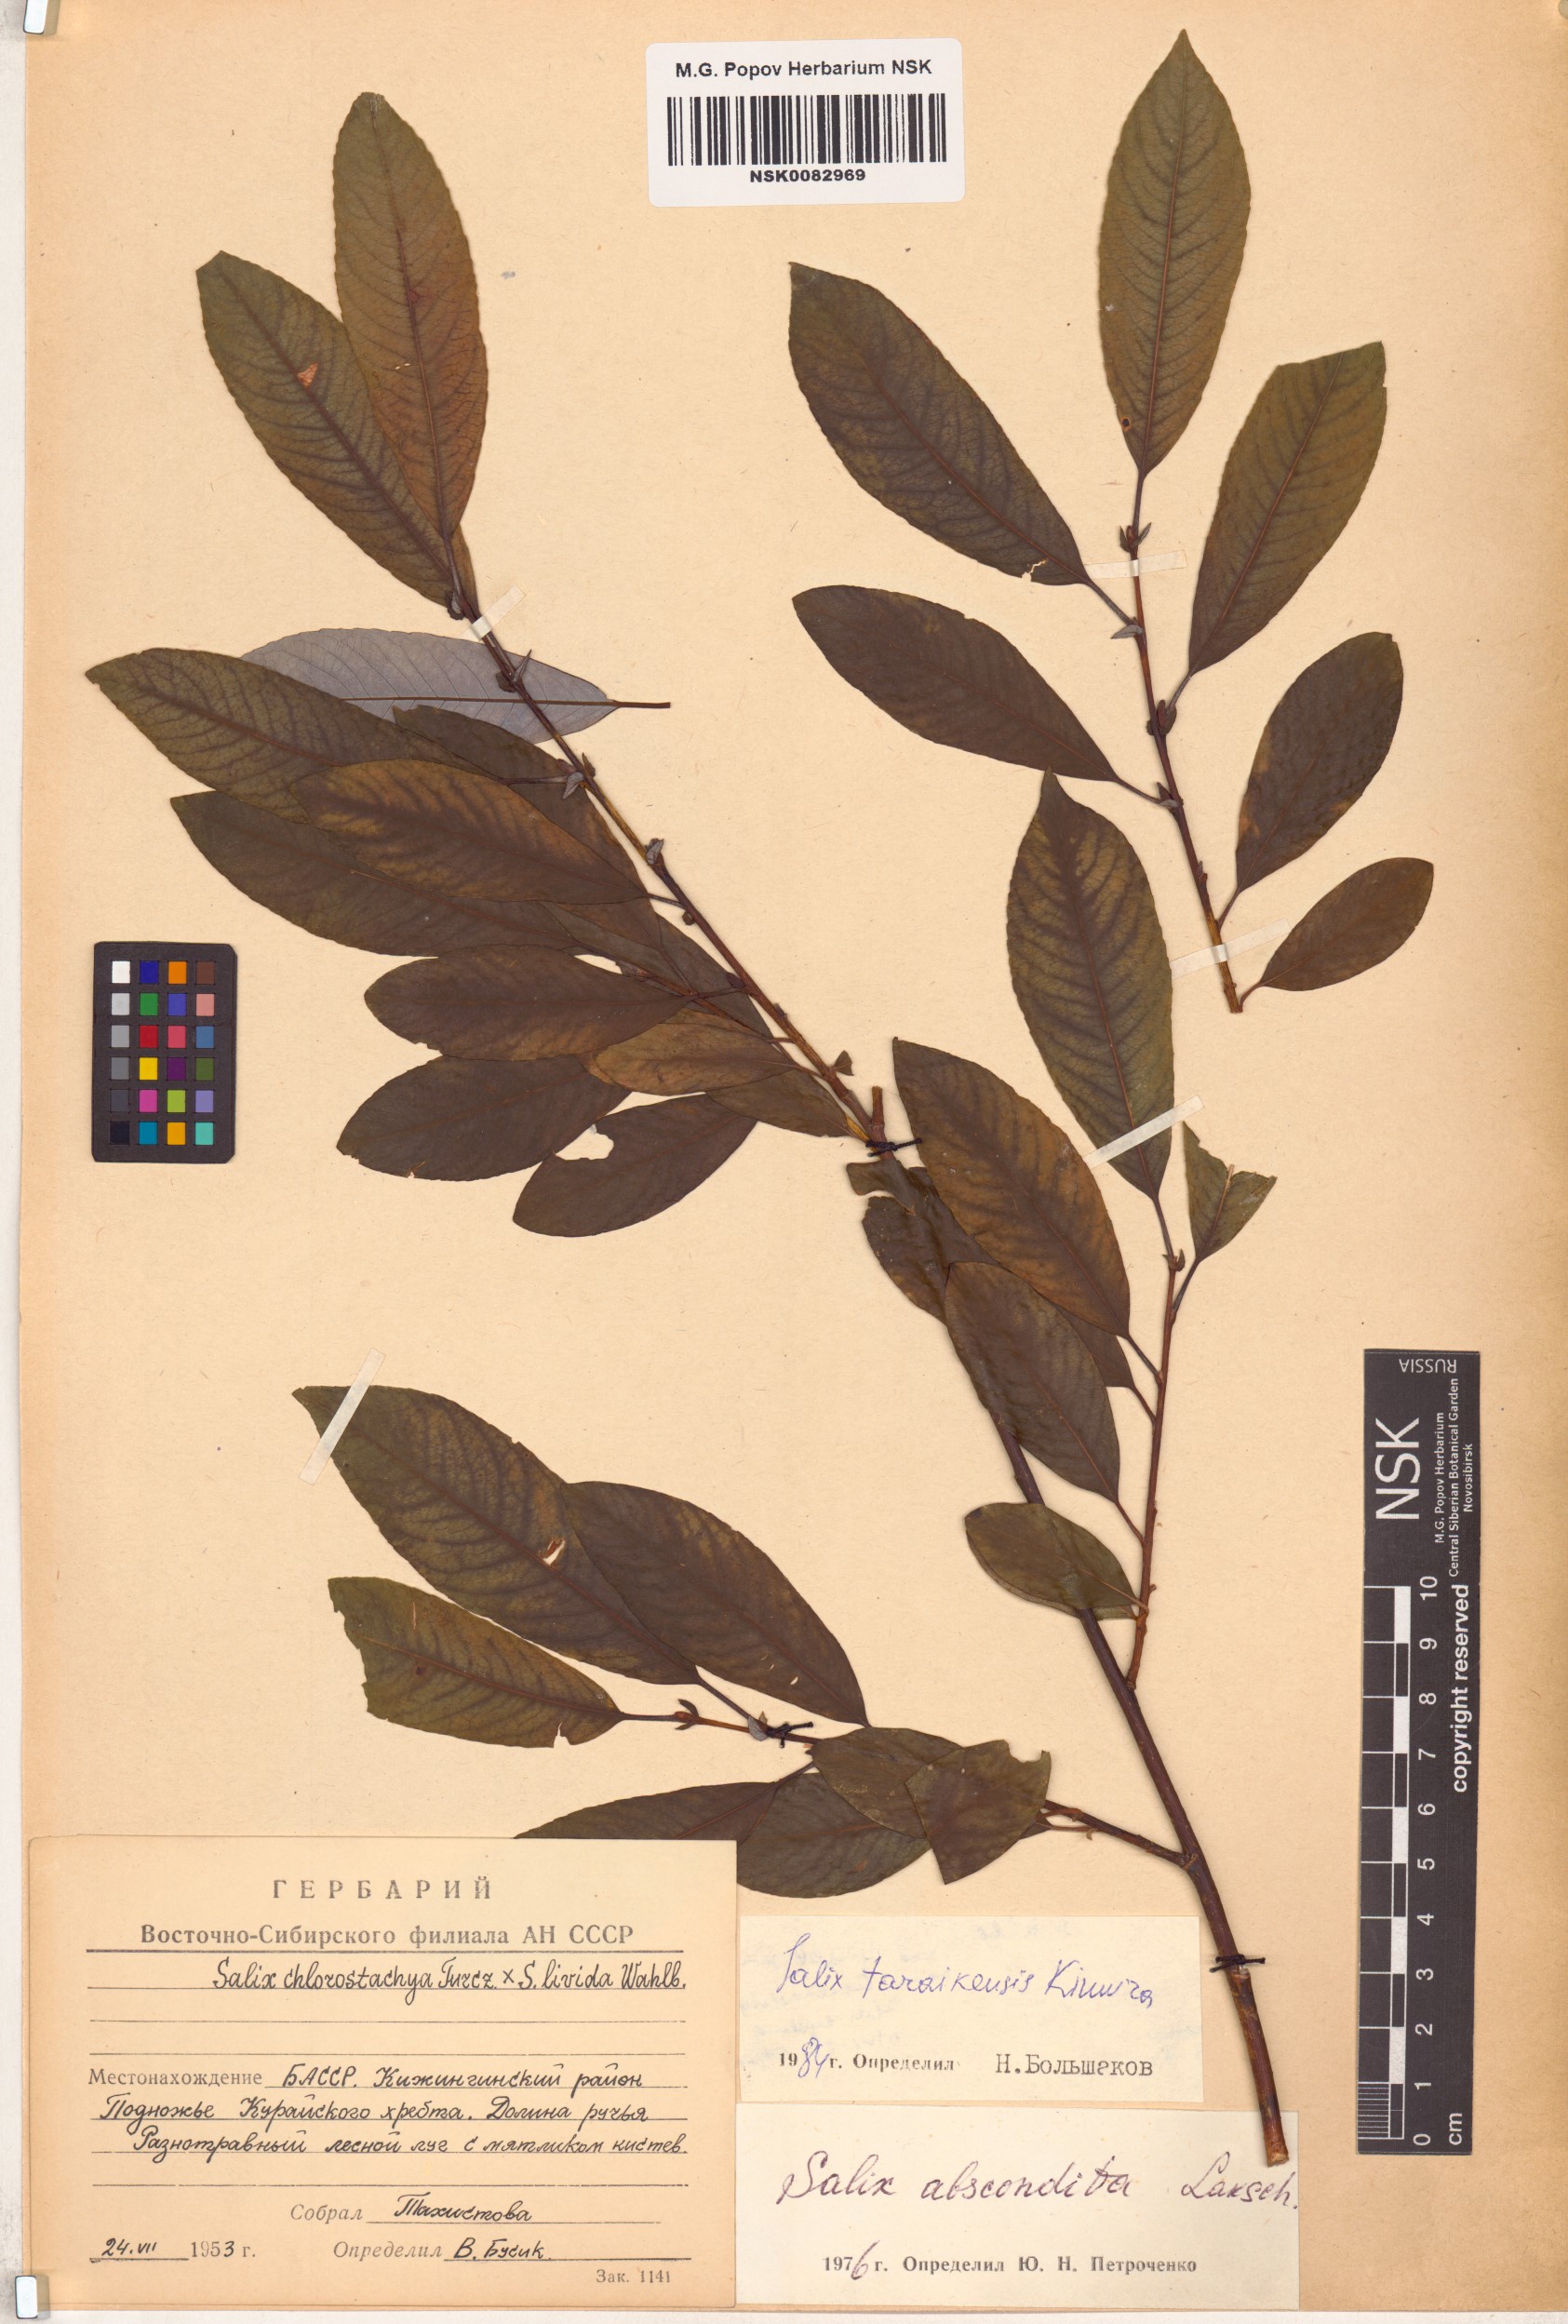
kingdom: Plantae
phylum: Tracheophyta
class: Magnoliopsida
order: Malpighiales
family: Salicaceae
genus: Salix
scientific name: Salix taraikensis
